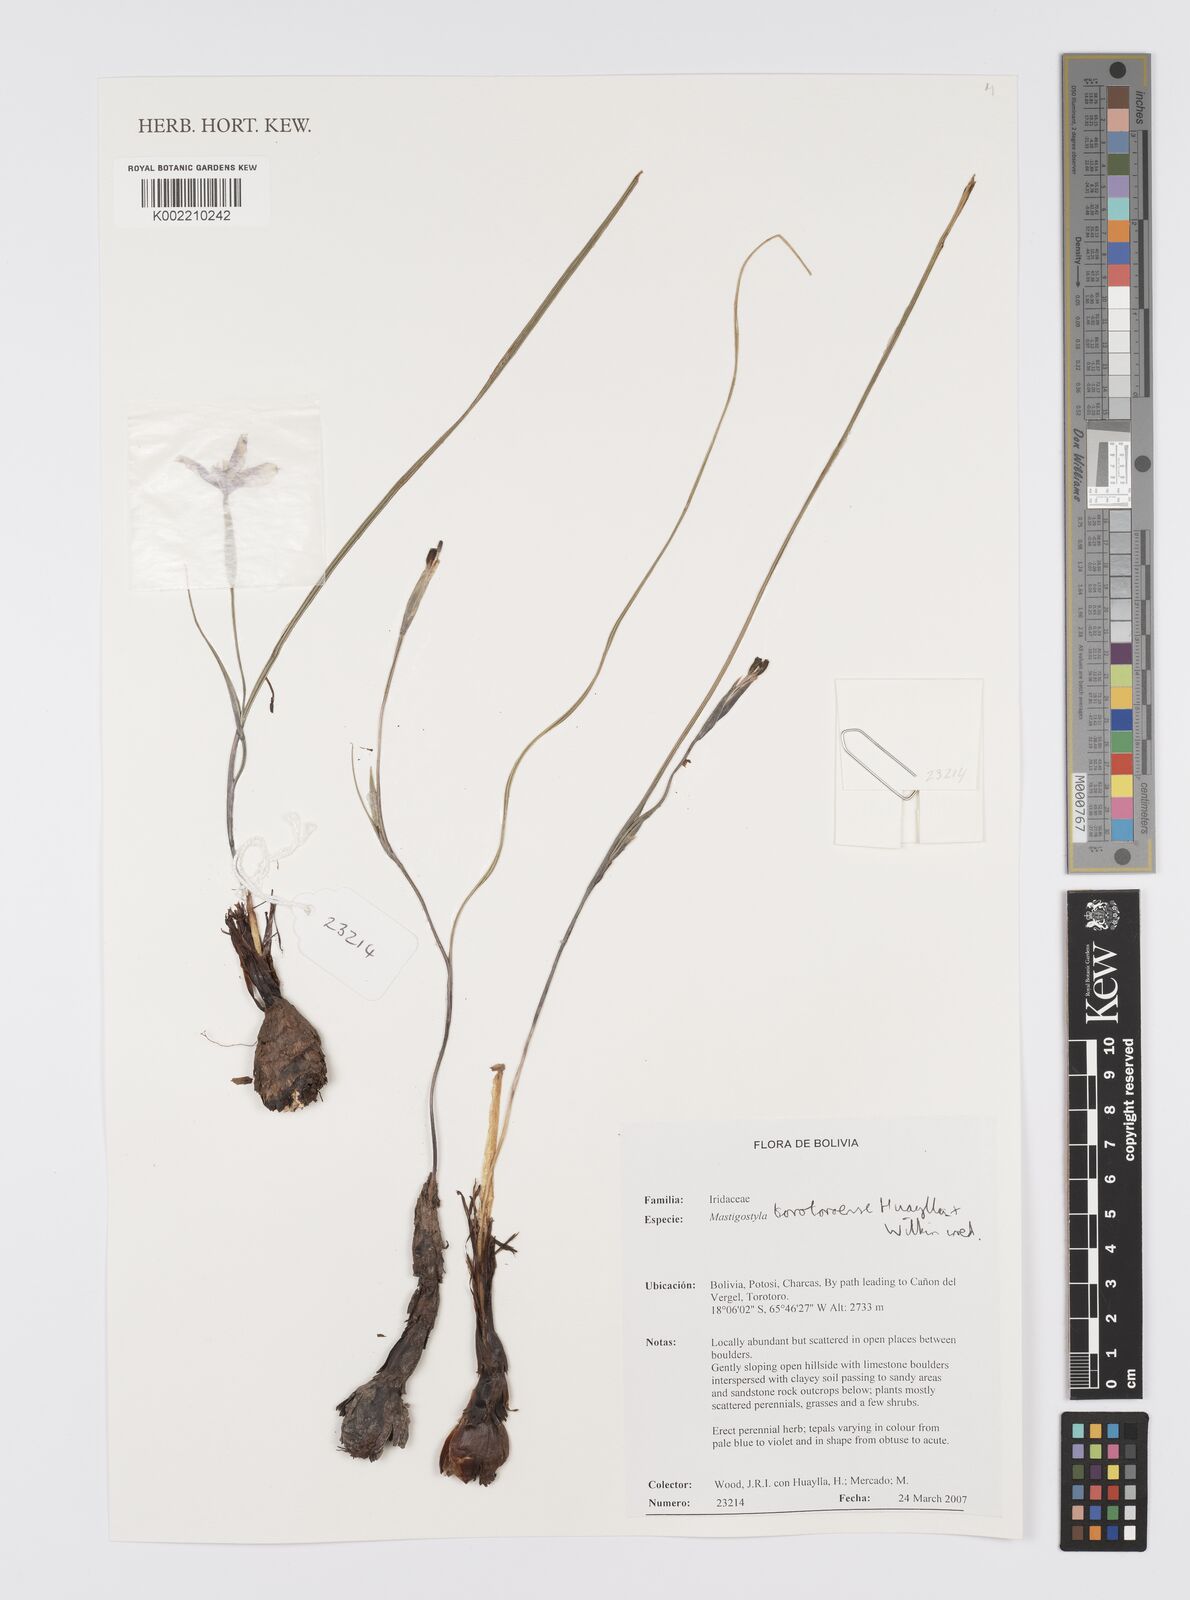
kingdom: Plantae
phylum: Tracheophyta
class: Liliopsida
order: Asparagales
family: Iridaceae
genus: Mastigostyla
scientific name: Mastigostyla torotoroensis
